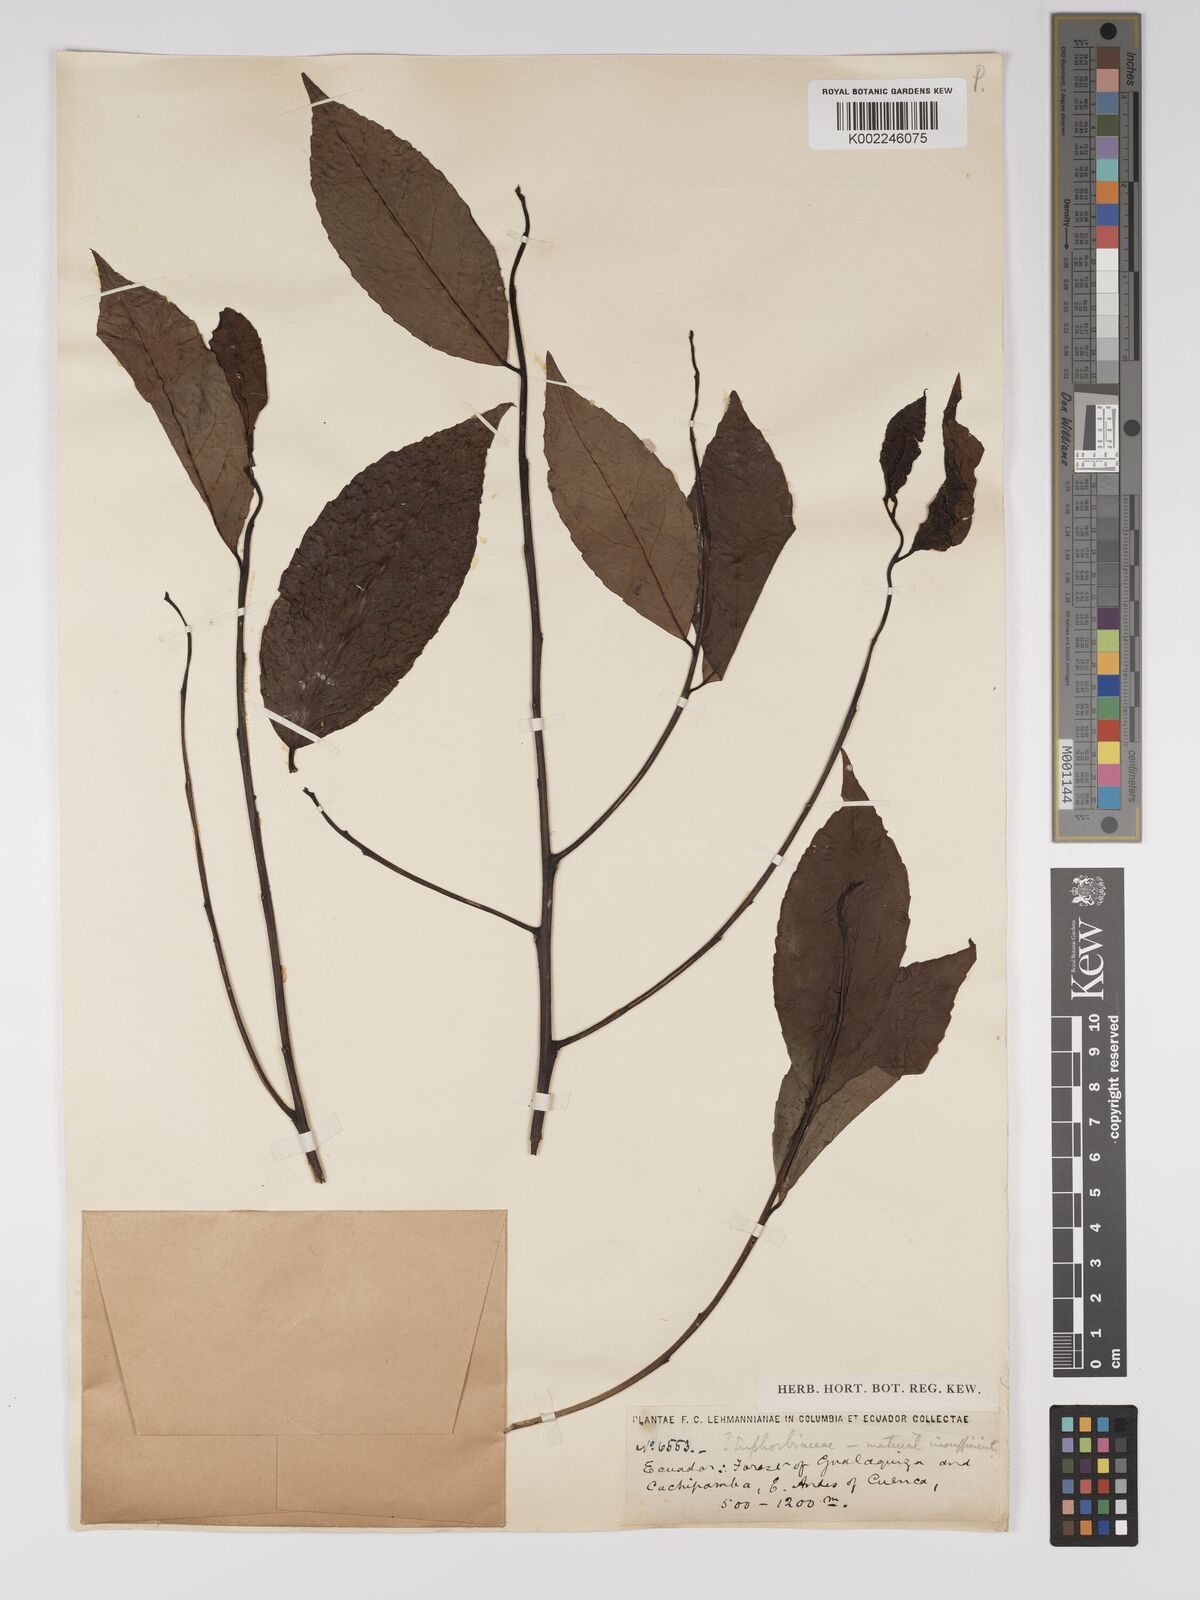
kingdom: Plantae
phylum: Tracheophyta
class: Magnoliopsida
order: Malpighiales
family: Euphorbiaceae
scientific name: Euphorbiaceae
